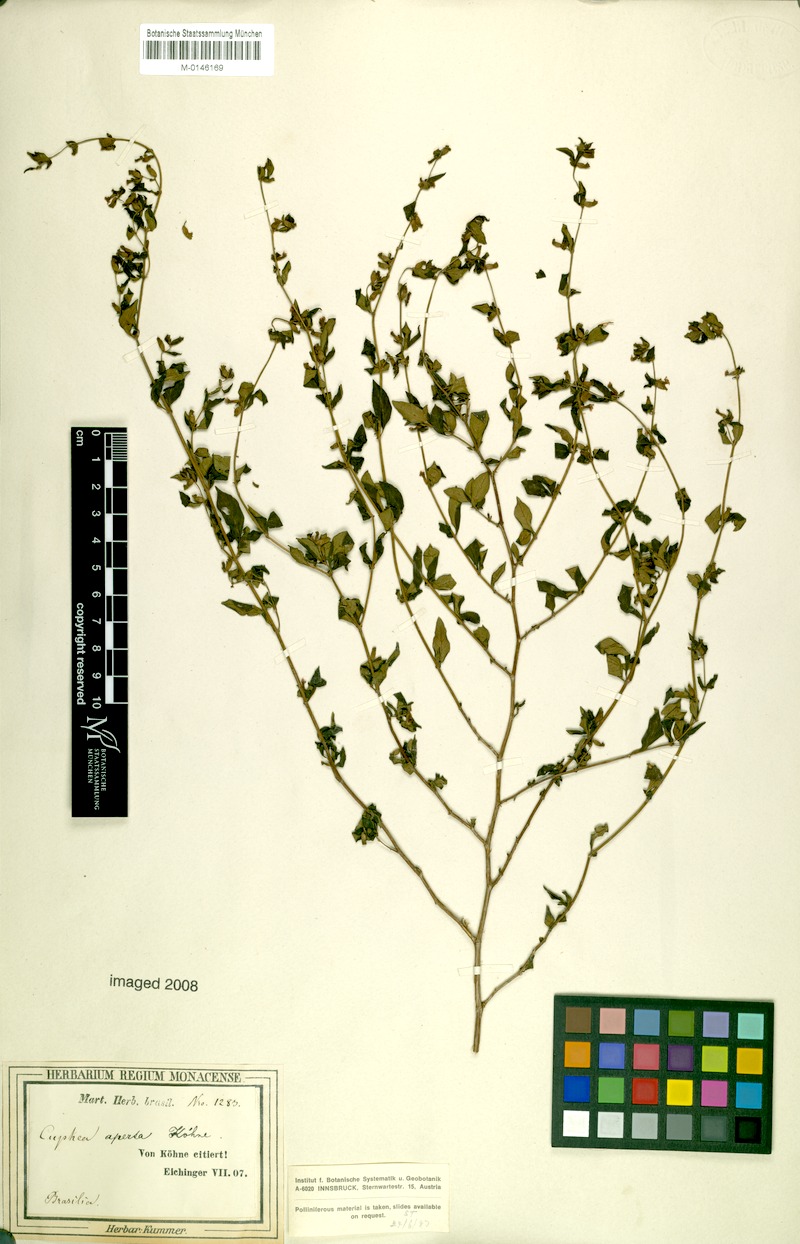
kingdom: Plantae
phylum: Tracheophyta
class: Magnoliopsida
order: Myrtales
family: Lythraceae
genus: Cuphea
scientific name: Cuphea aperta
